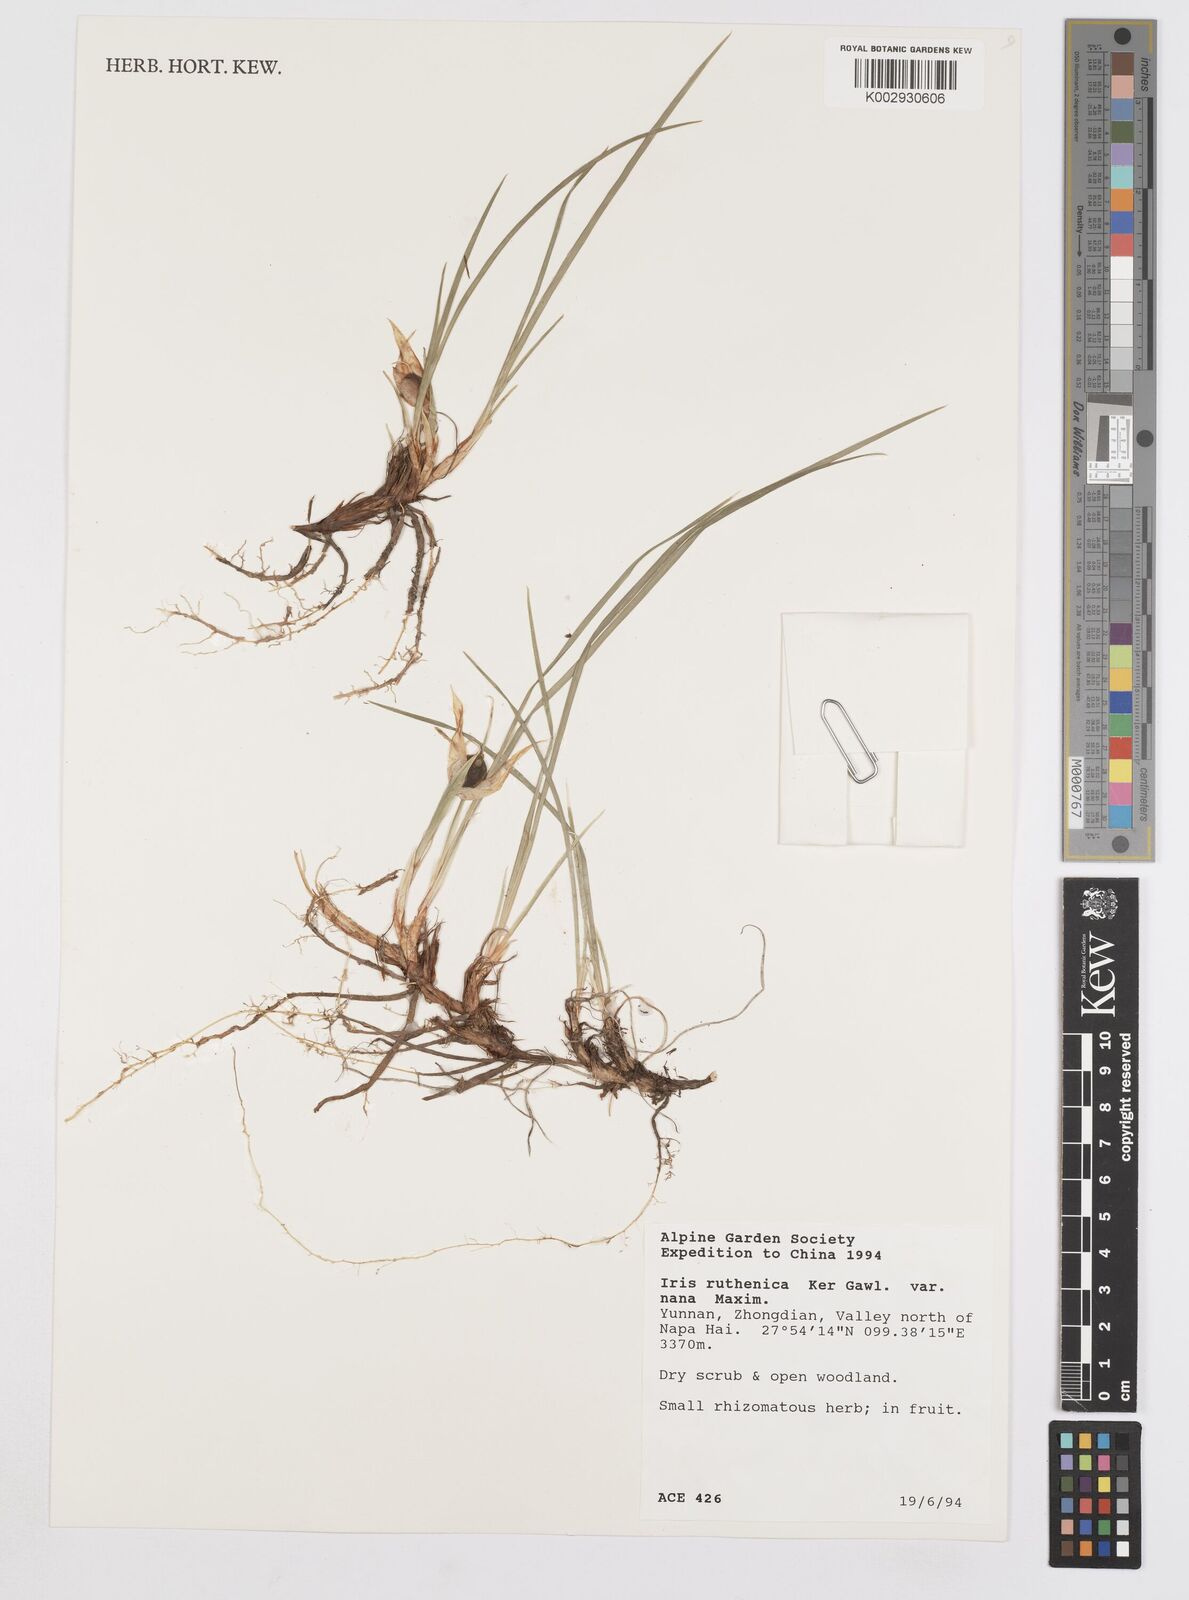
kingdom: Plantae
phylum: Tracheophyta
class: Liliopsida
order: Asparagales
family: Iridaceae
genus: Iris
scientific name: Iris ruthenica
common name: Purple-bract iris
